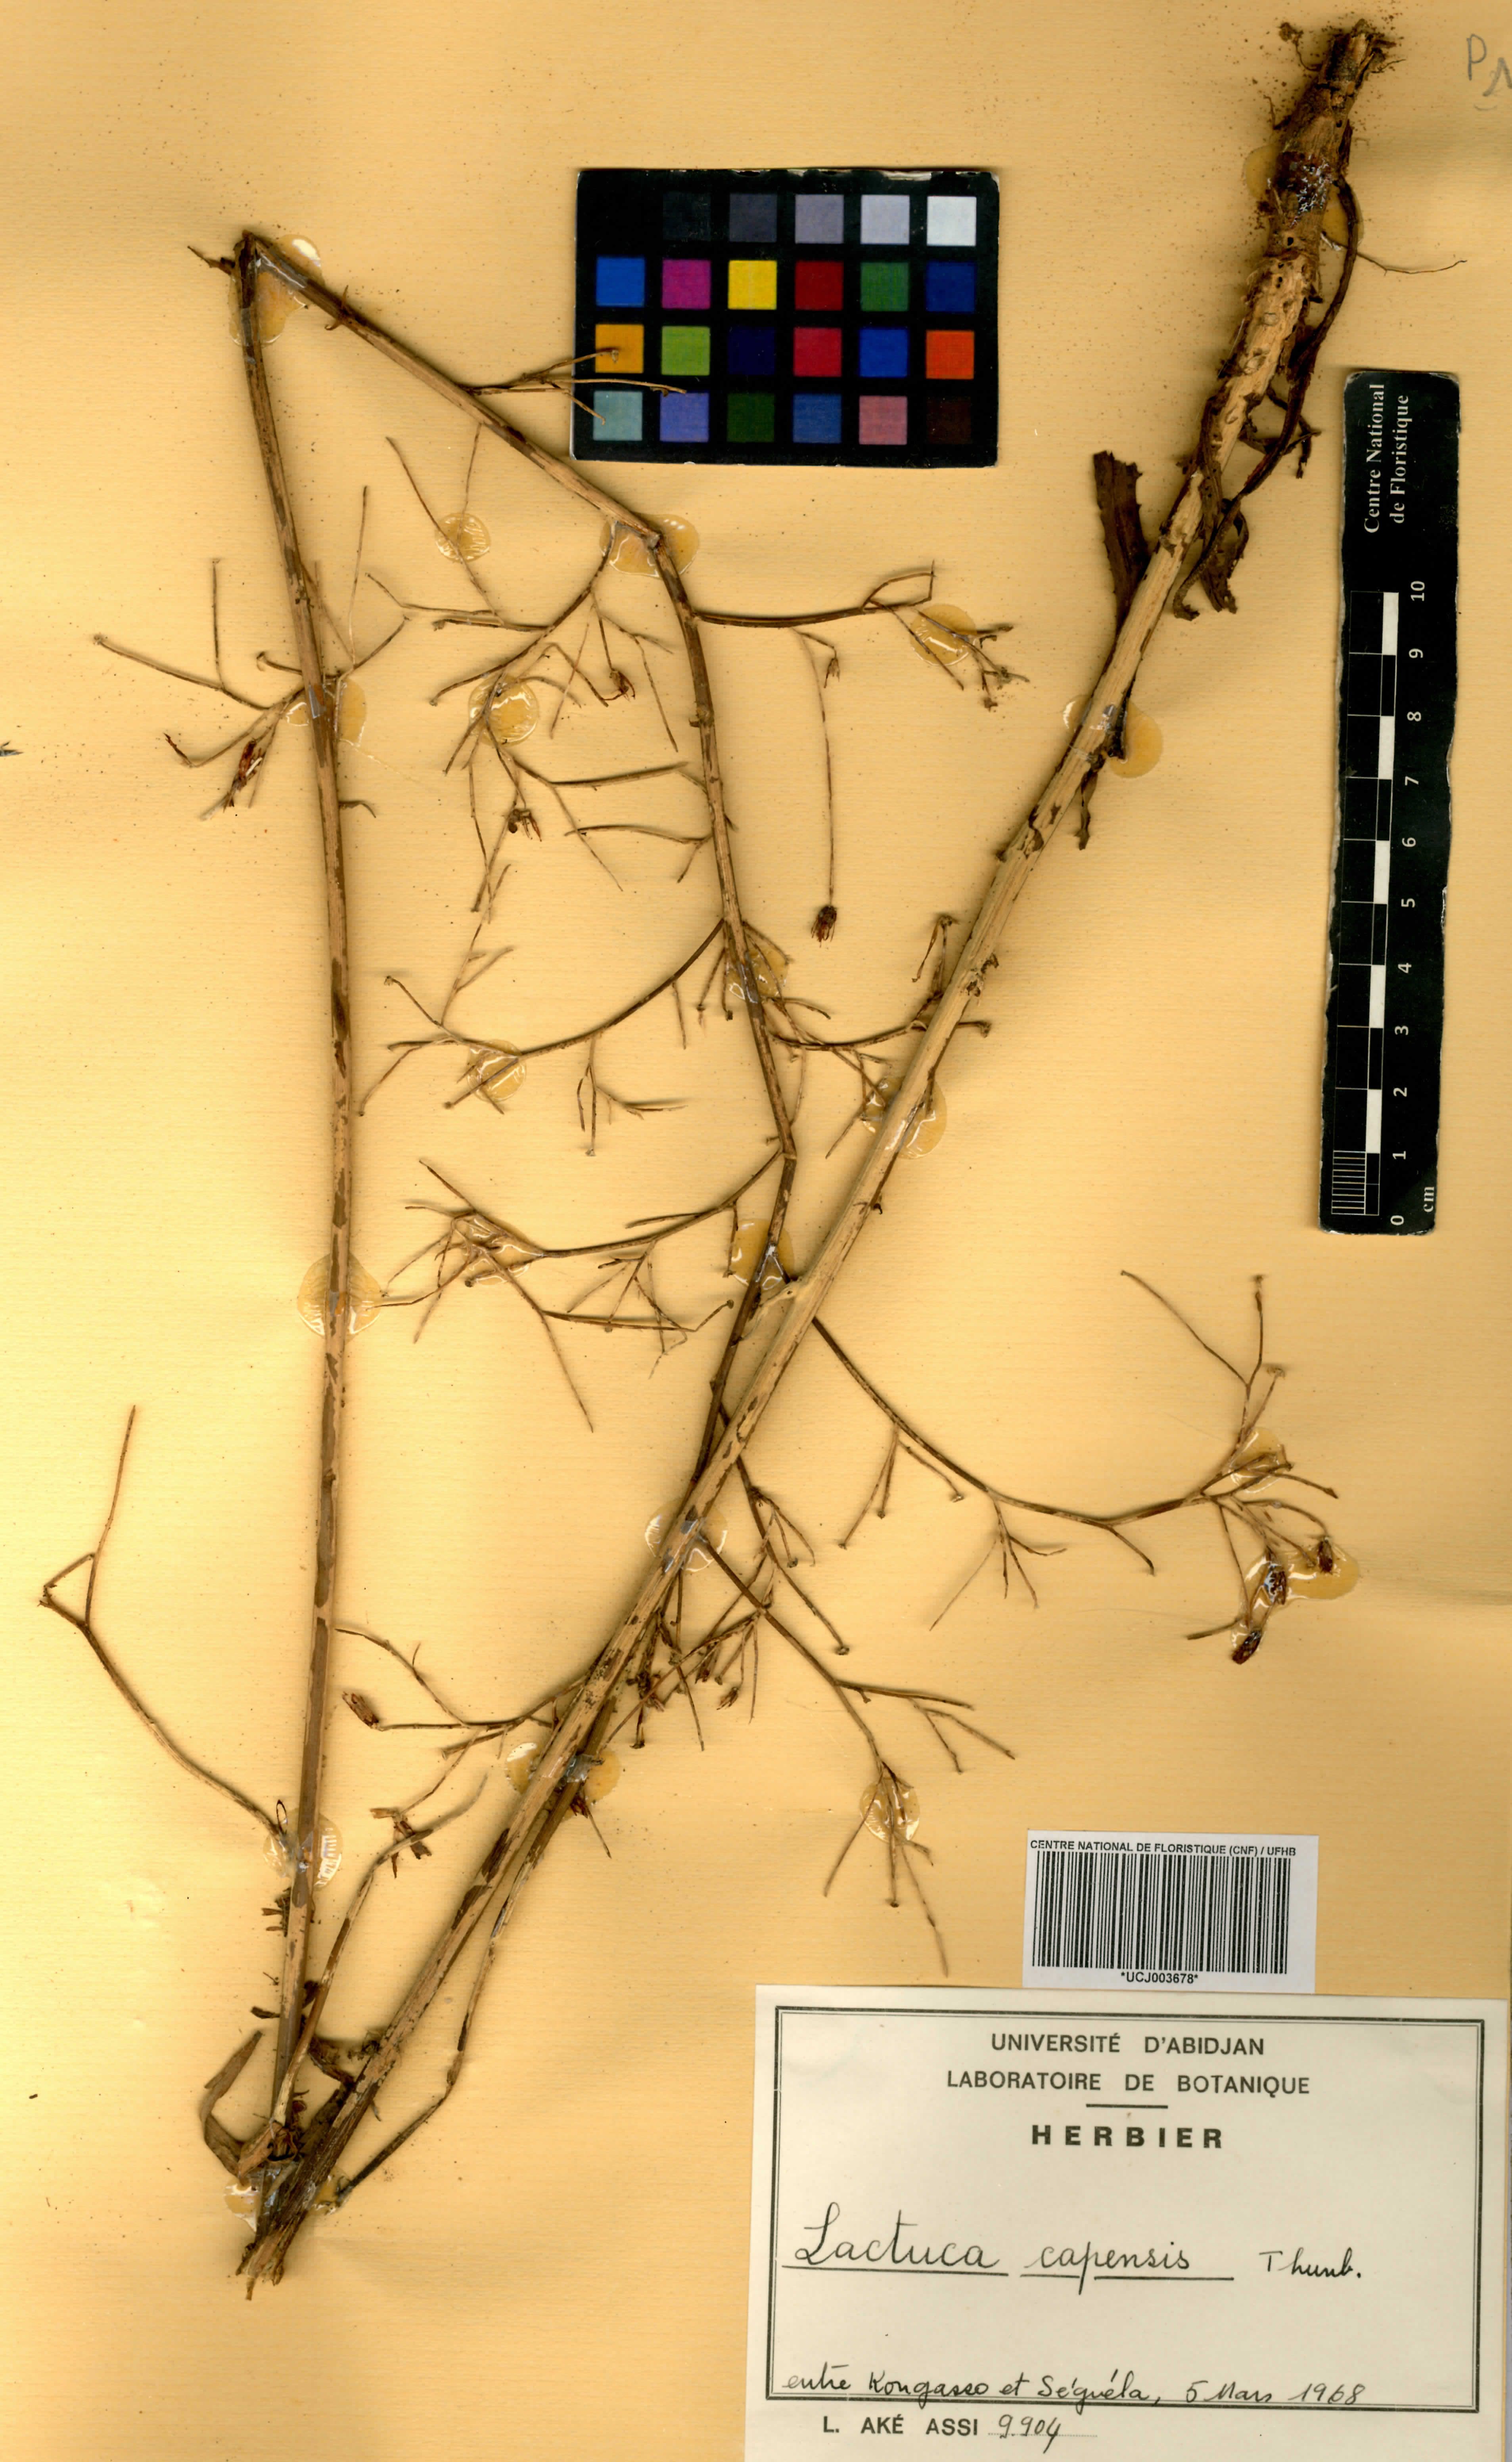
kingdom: Plantae
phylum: Tracheophyta
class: Magnoliopsida
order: Asterales
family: Asteraceae
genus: Lactuca
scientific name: Lactuca inermis
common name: Wild lettuce
